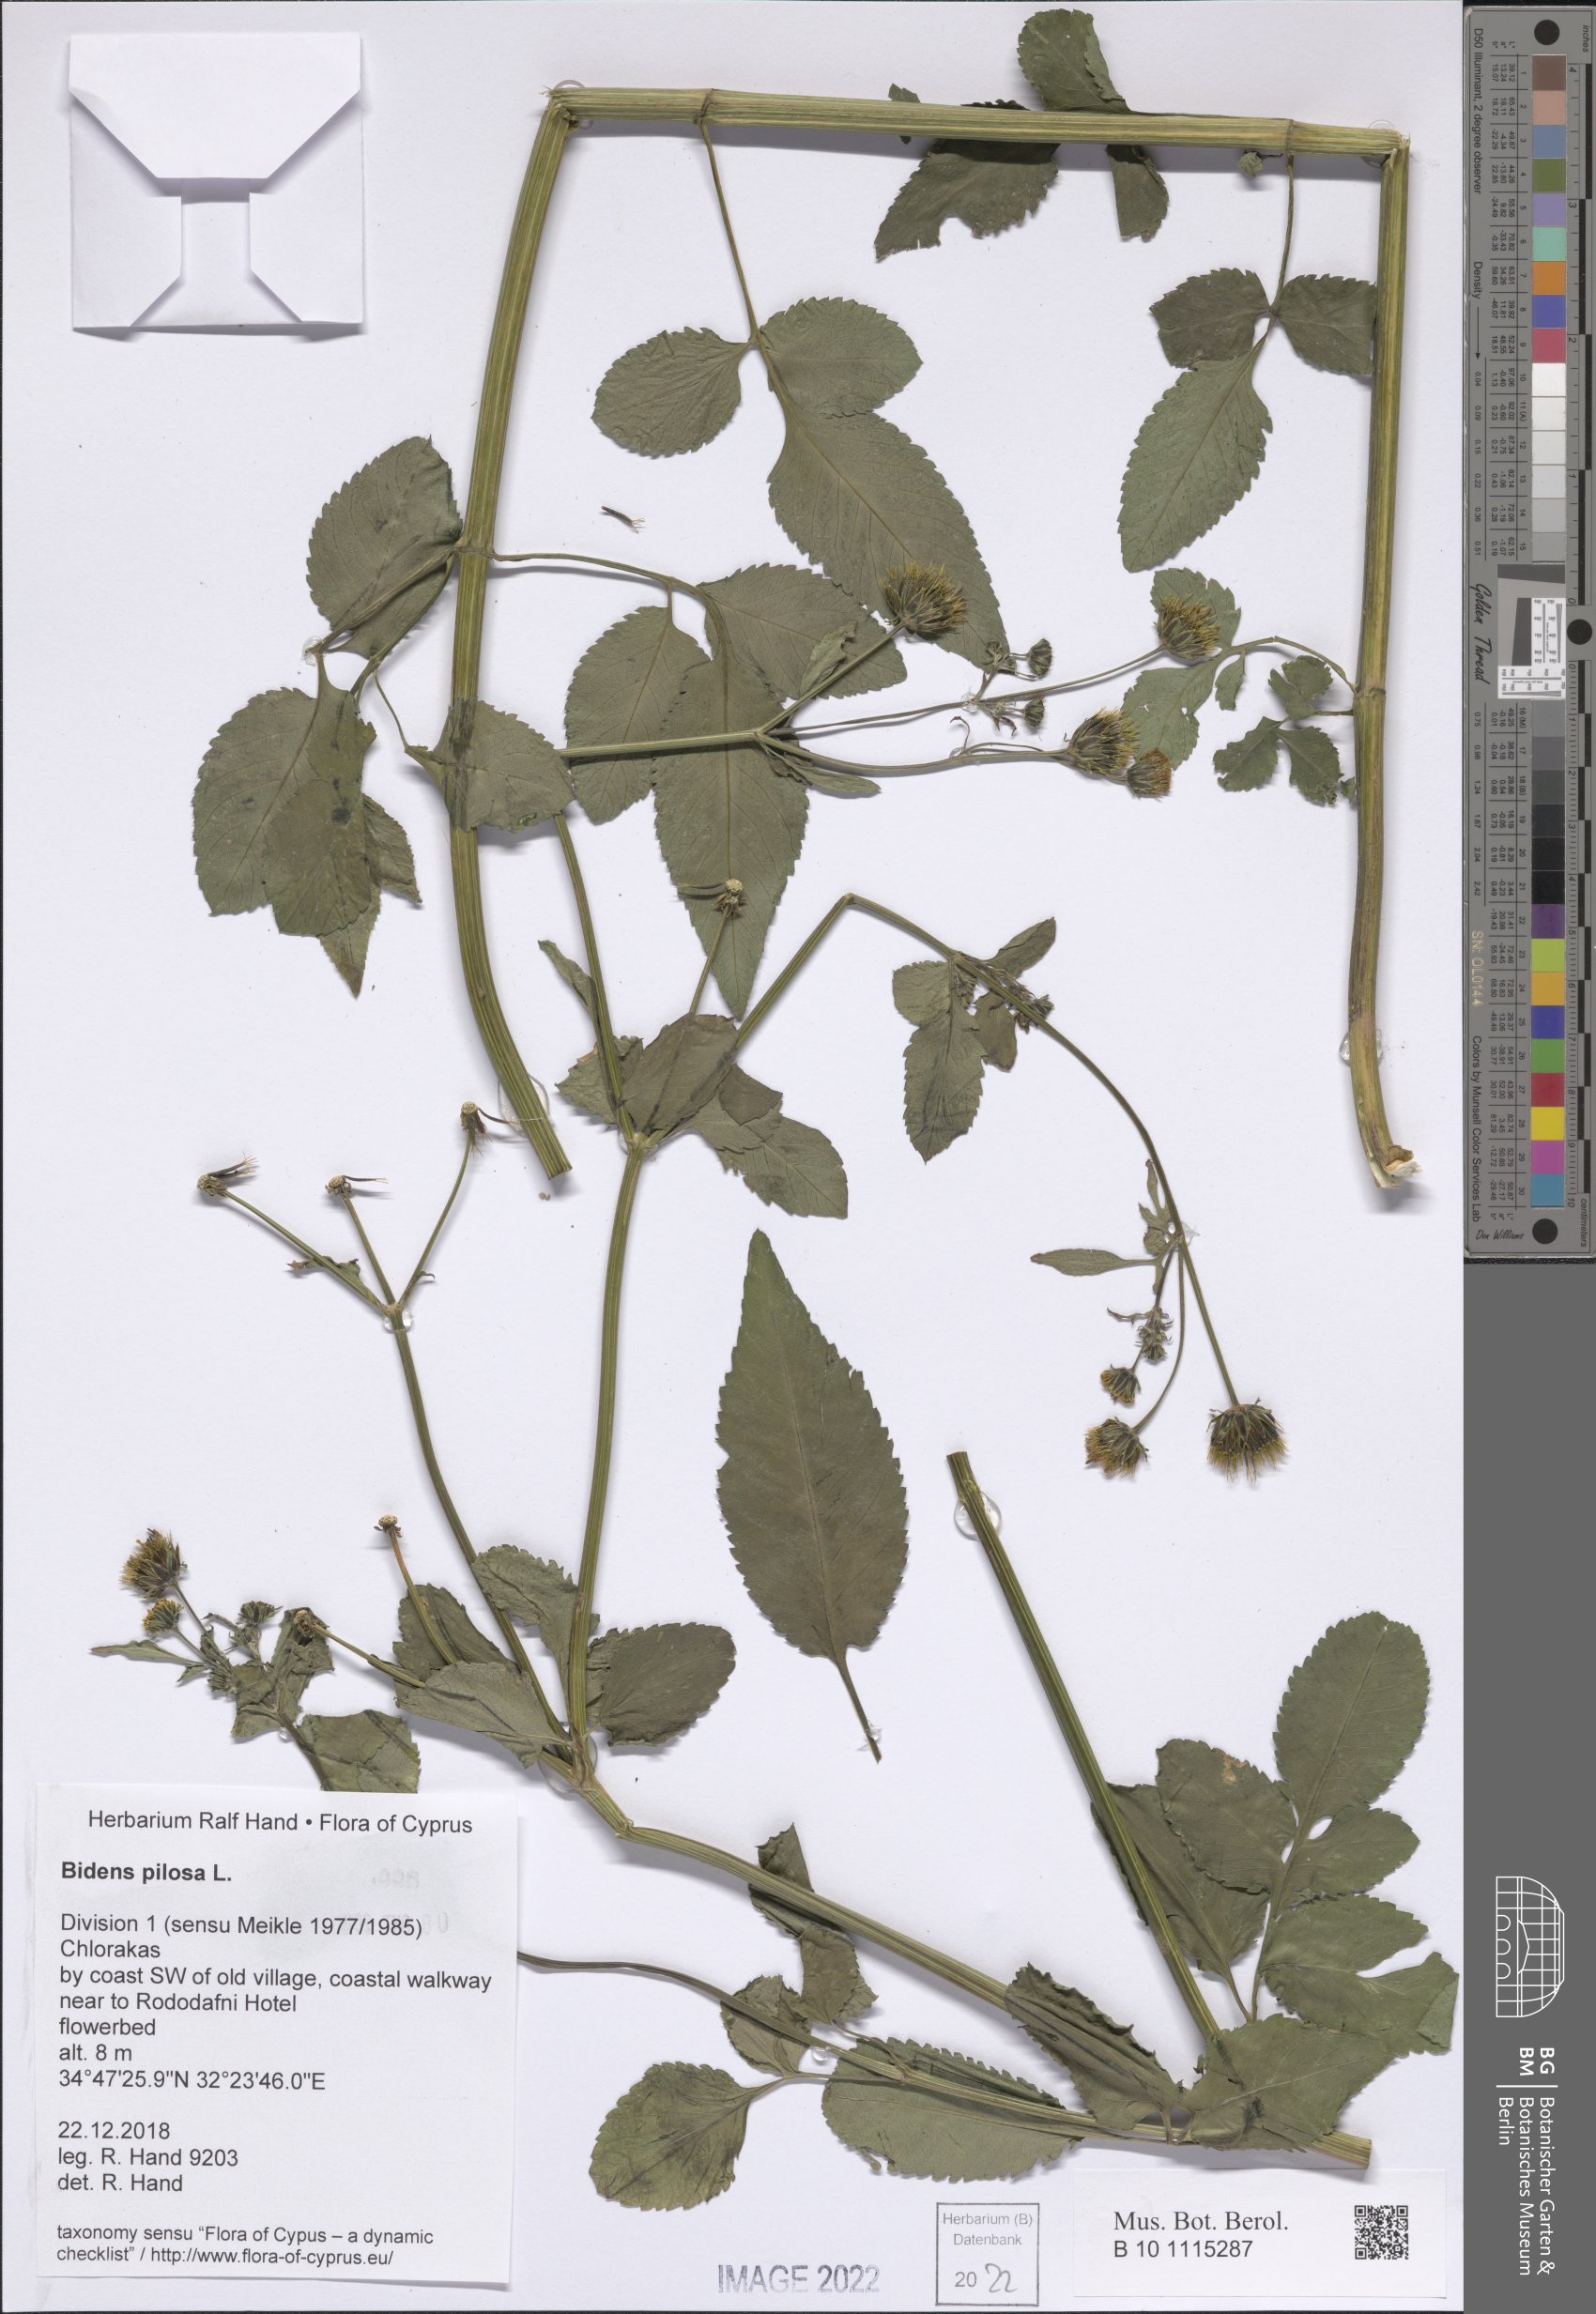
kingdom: Plantae
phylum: Tracheophyta
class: Magnoliopsida
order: Asterales
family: Asteraceae
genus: Bidens
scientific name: Bidens pilosa
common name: Black-jack
